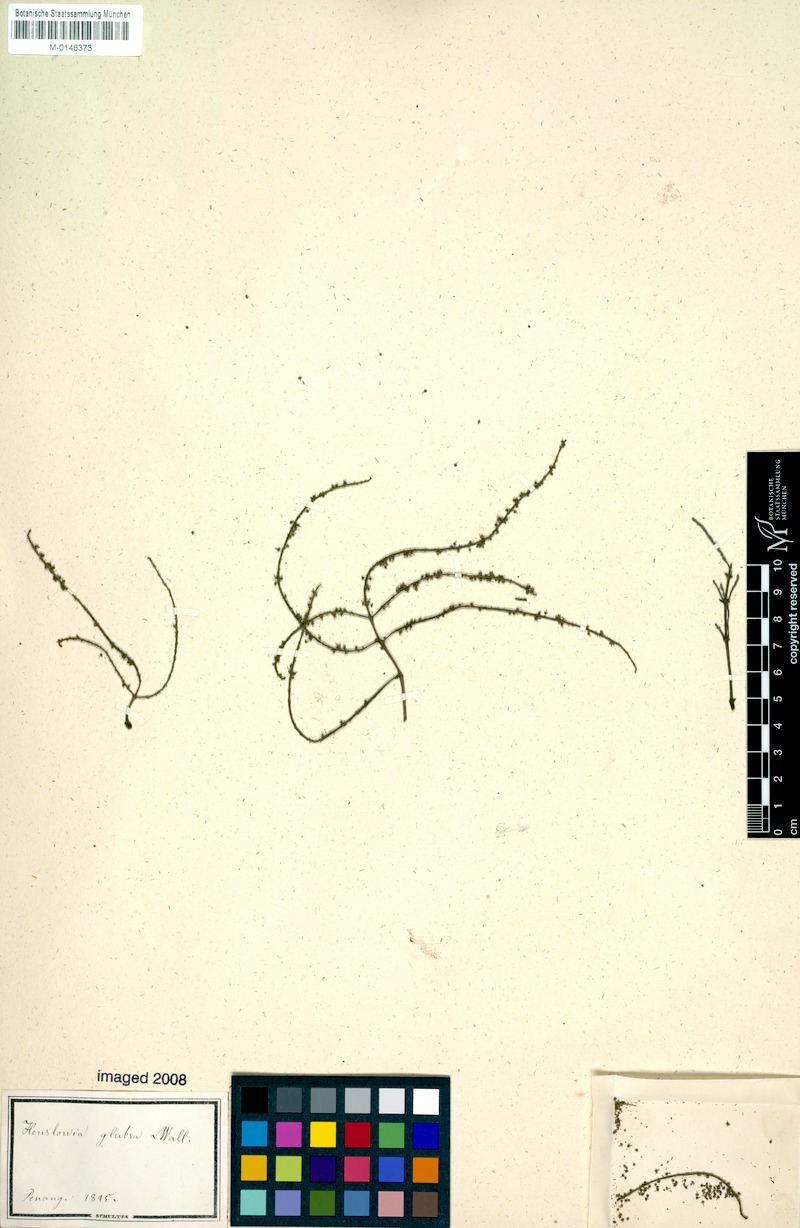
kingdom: Plantae
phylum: Tracheophyta
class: Magnoliopsida
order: Myrtales
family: Crypteroniaceae
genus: Crypteronia
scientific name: Crypteronia paniculata
